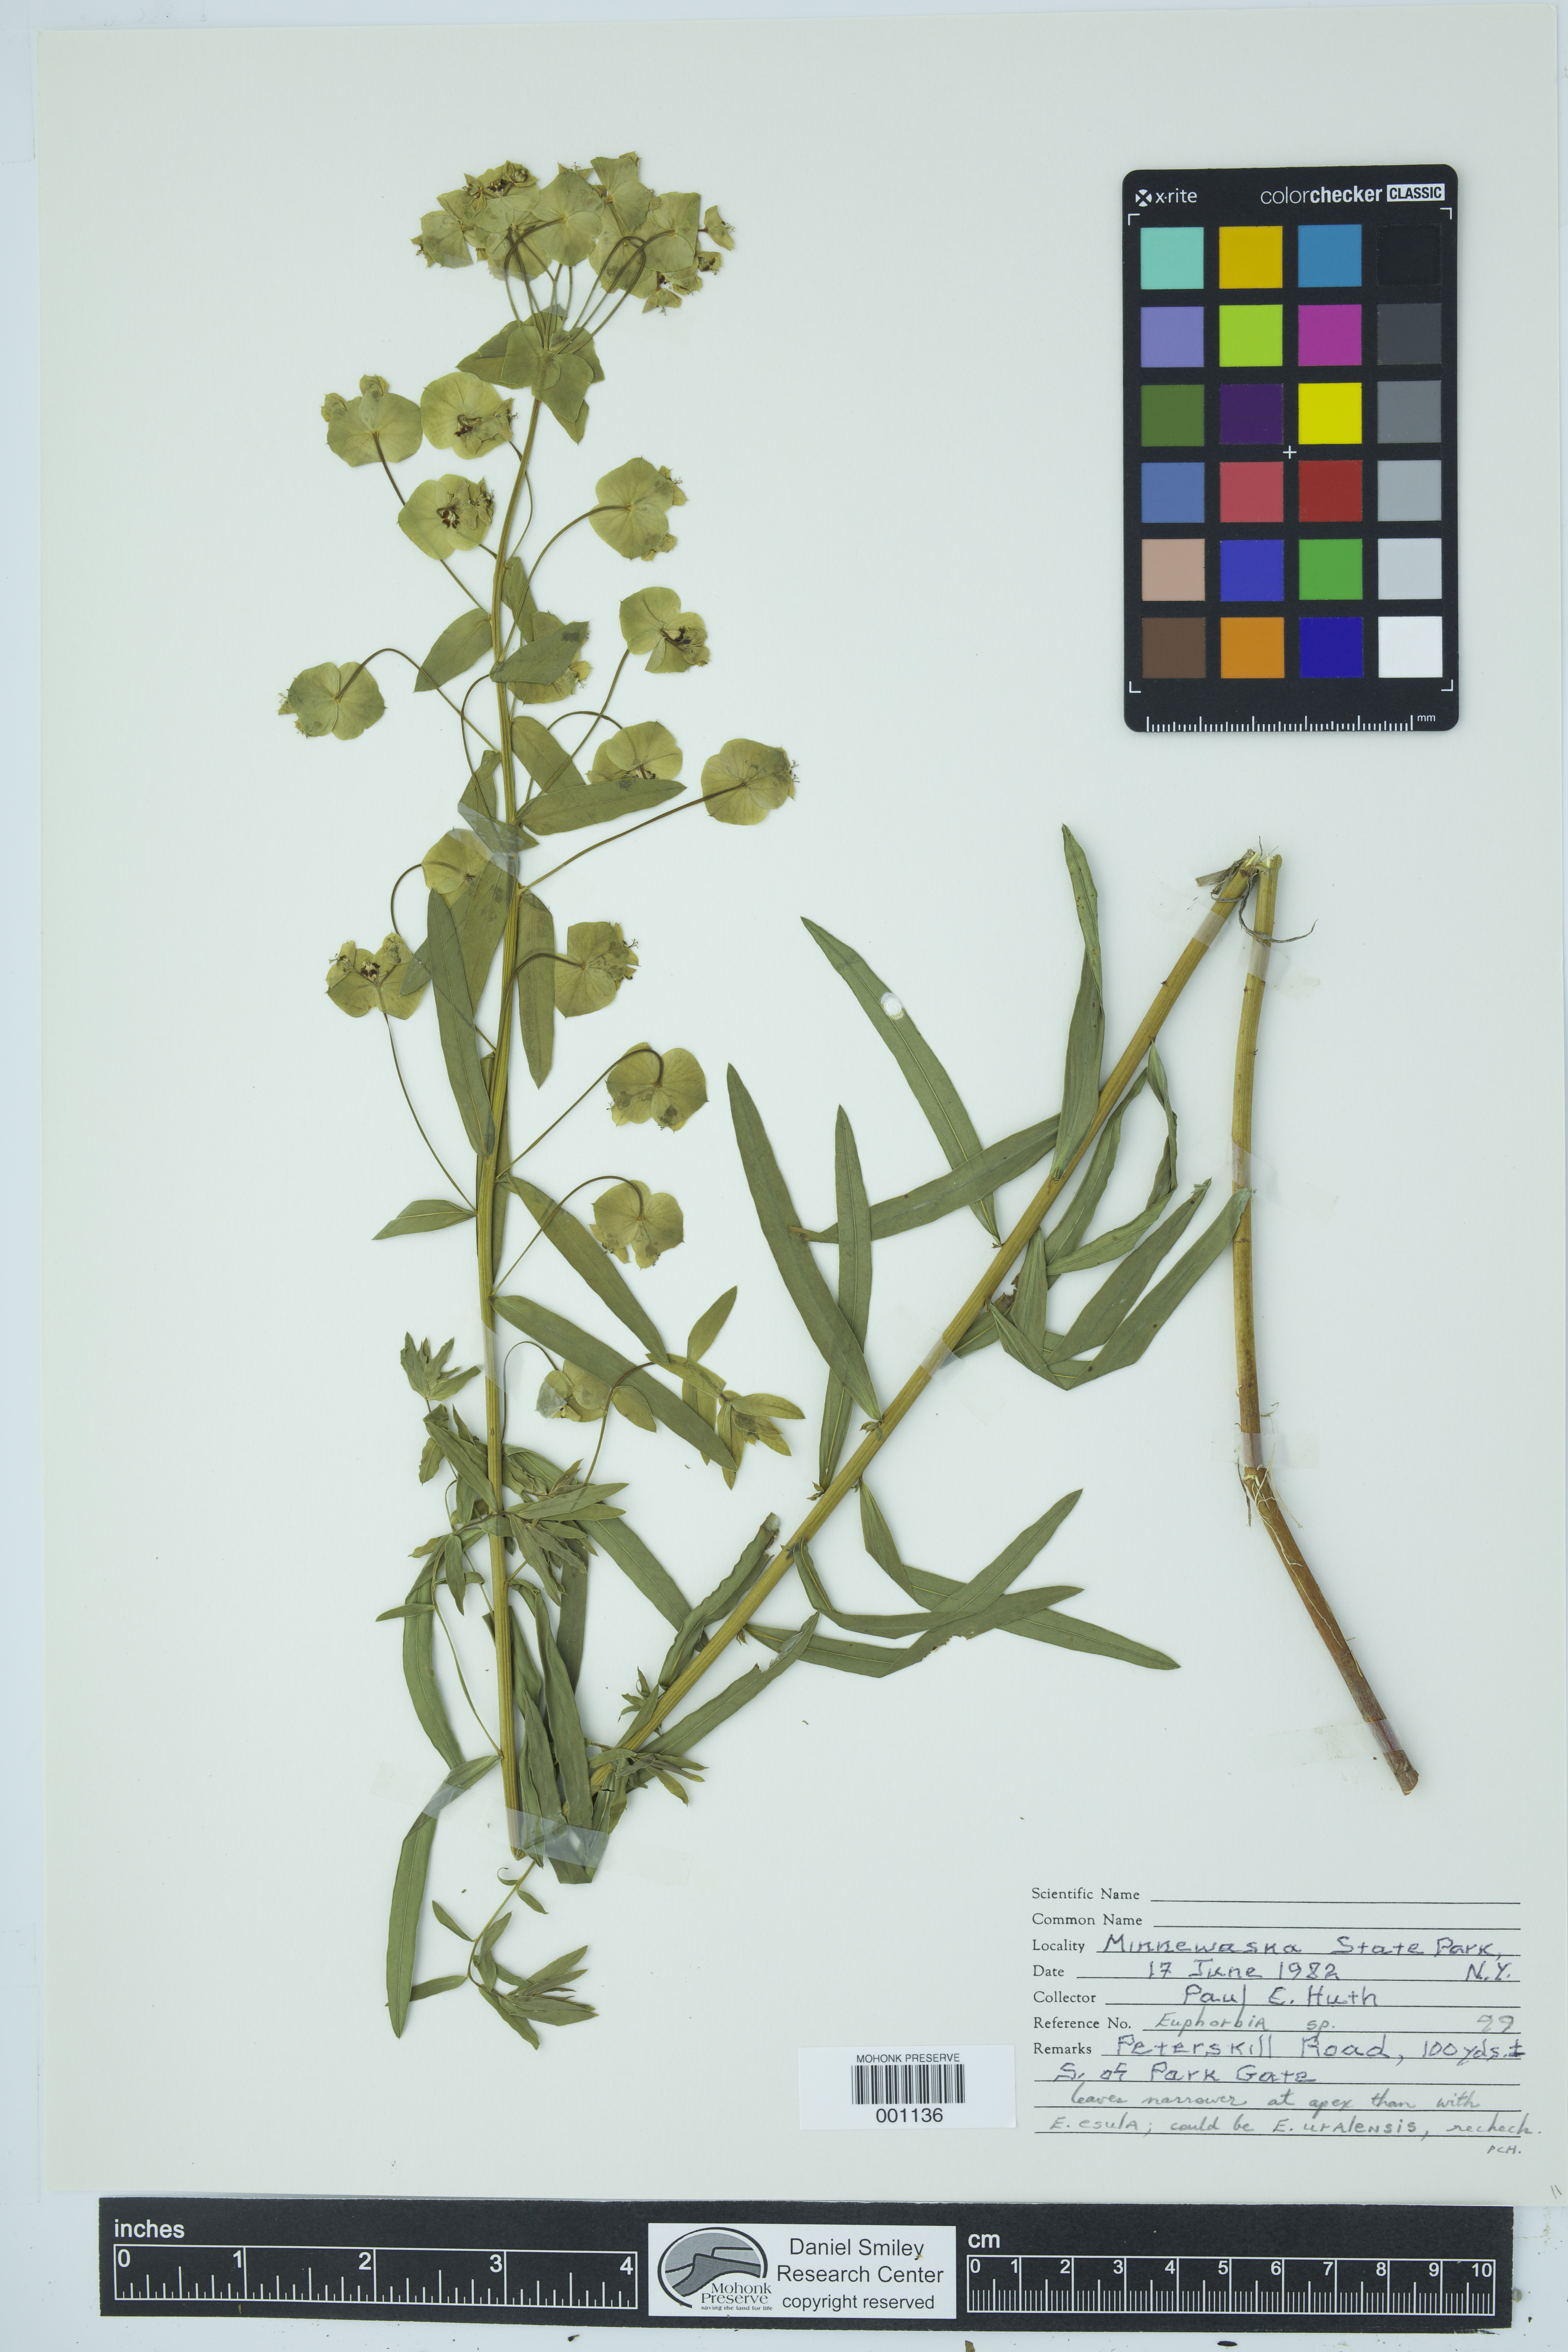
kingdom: Plantae
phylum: Tracheophyta
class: Magnoliopsida
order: Malpighiales
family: Euphorbiaceae
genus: Euphorbia
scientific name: Euphorbia
